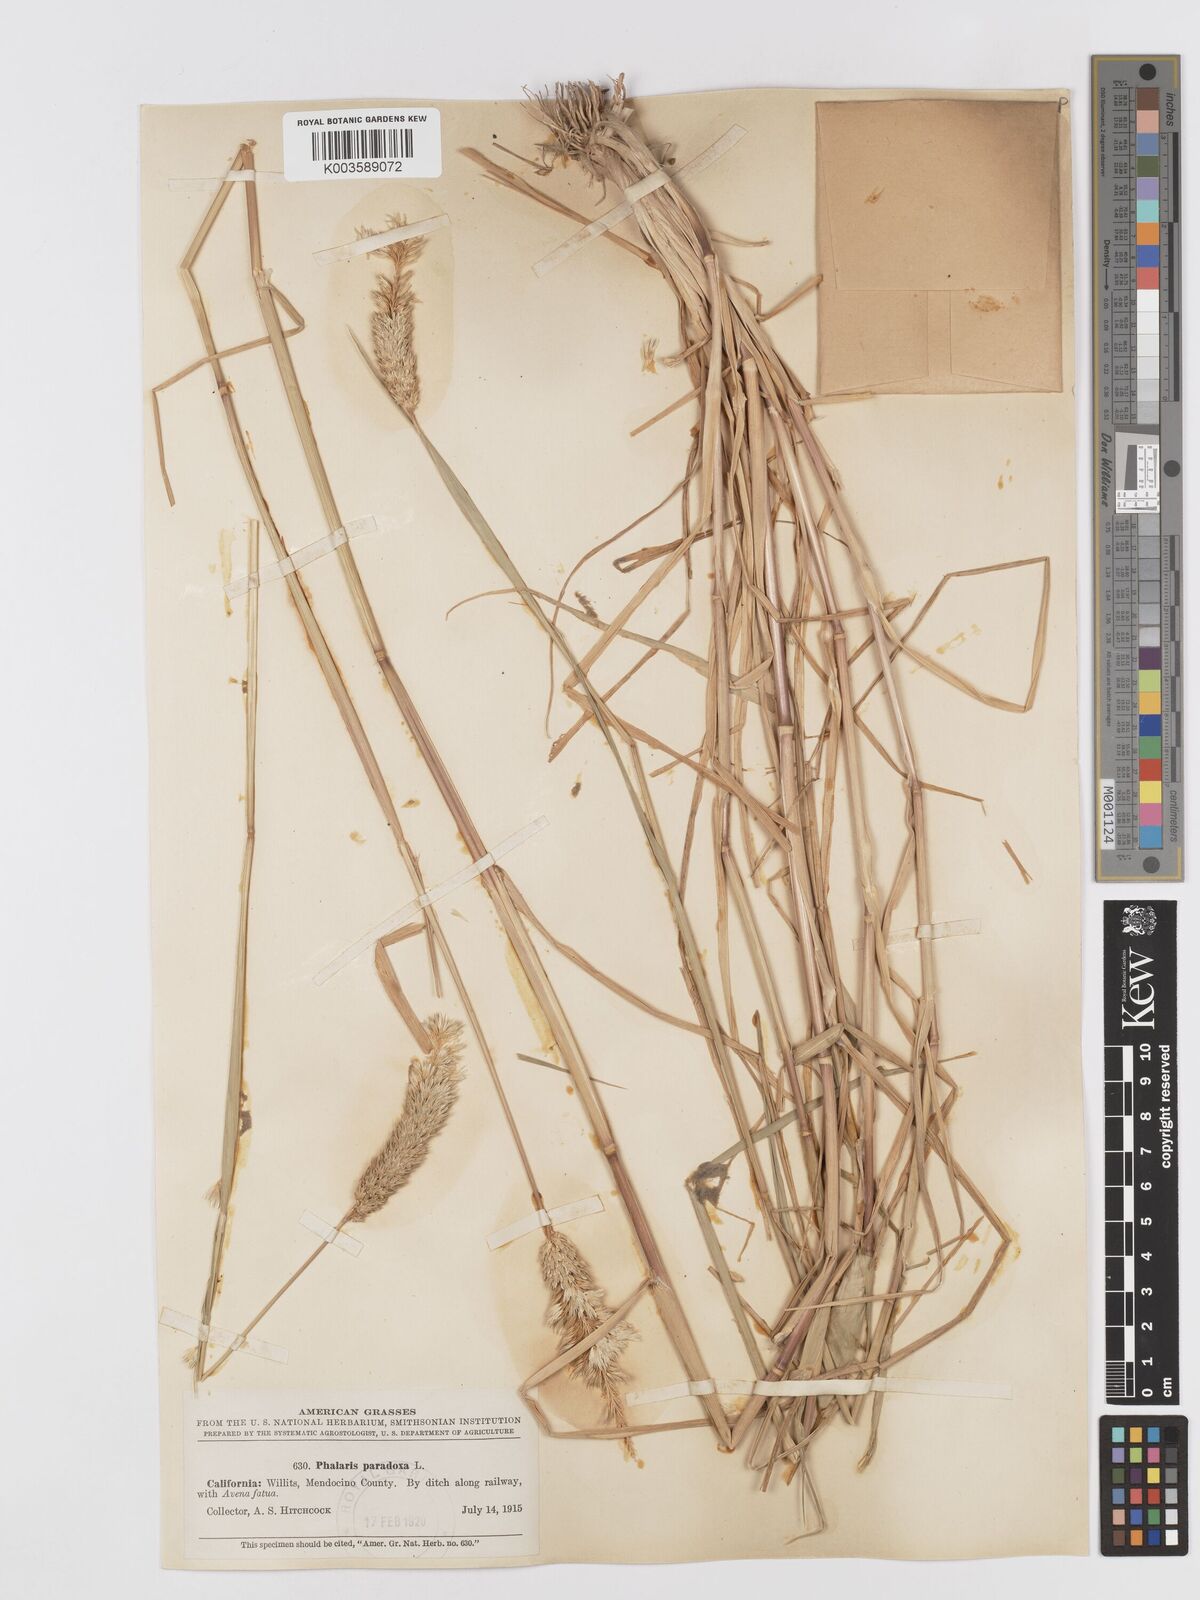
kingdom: Plantae
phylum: Tracheophyta
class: Liliopsida
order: Poales
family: Poaceae
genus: Phalaris
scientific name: Phalaris paradoxa
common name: Awned canary-grass
